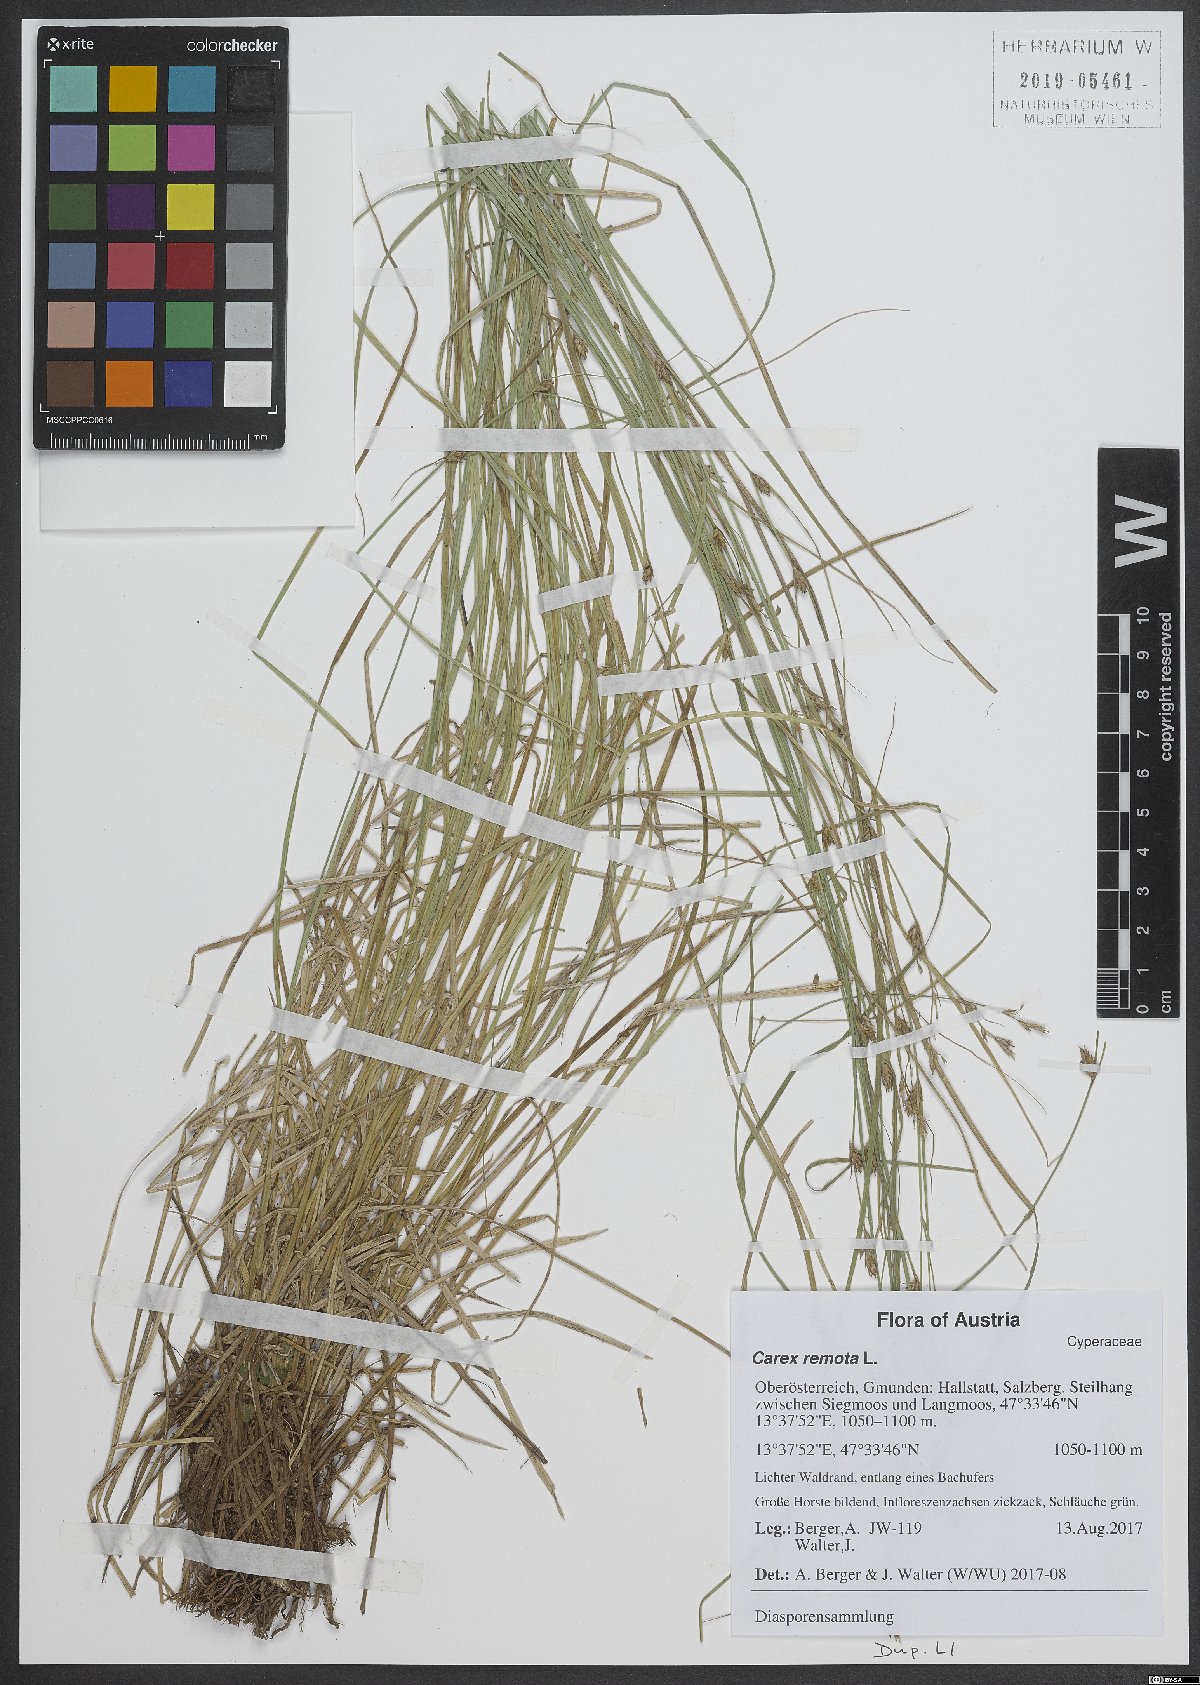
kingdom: Plantae
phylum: Tracheophyta
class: Liliopsida
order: Poales
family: Cyperaceae
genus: Carex
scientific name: Carex remota
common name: Remote sedge
